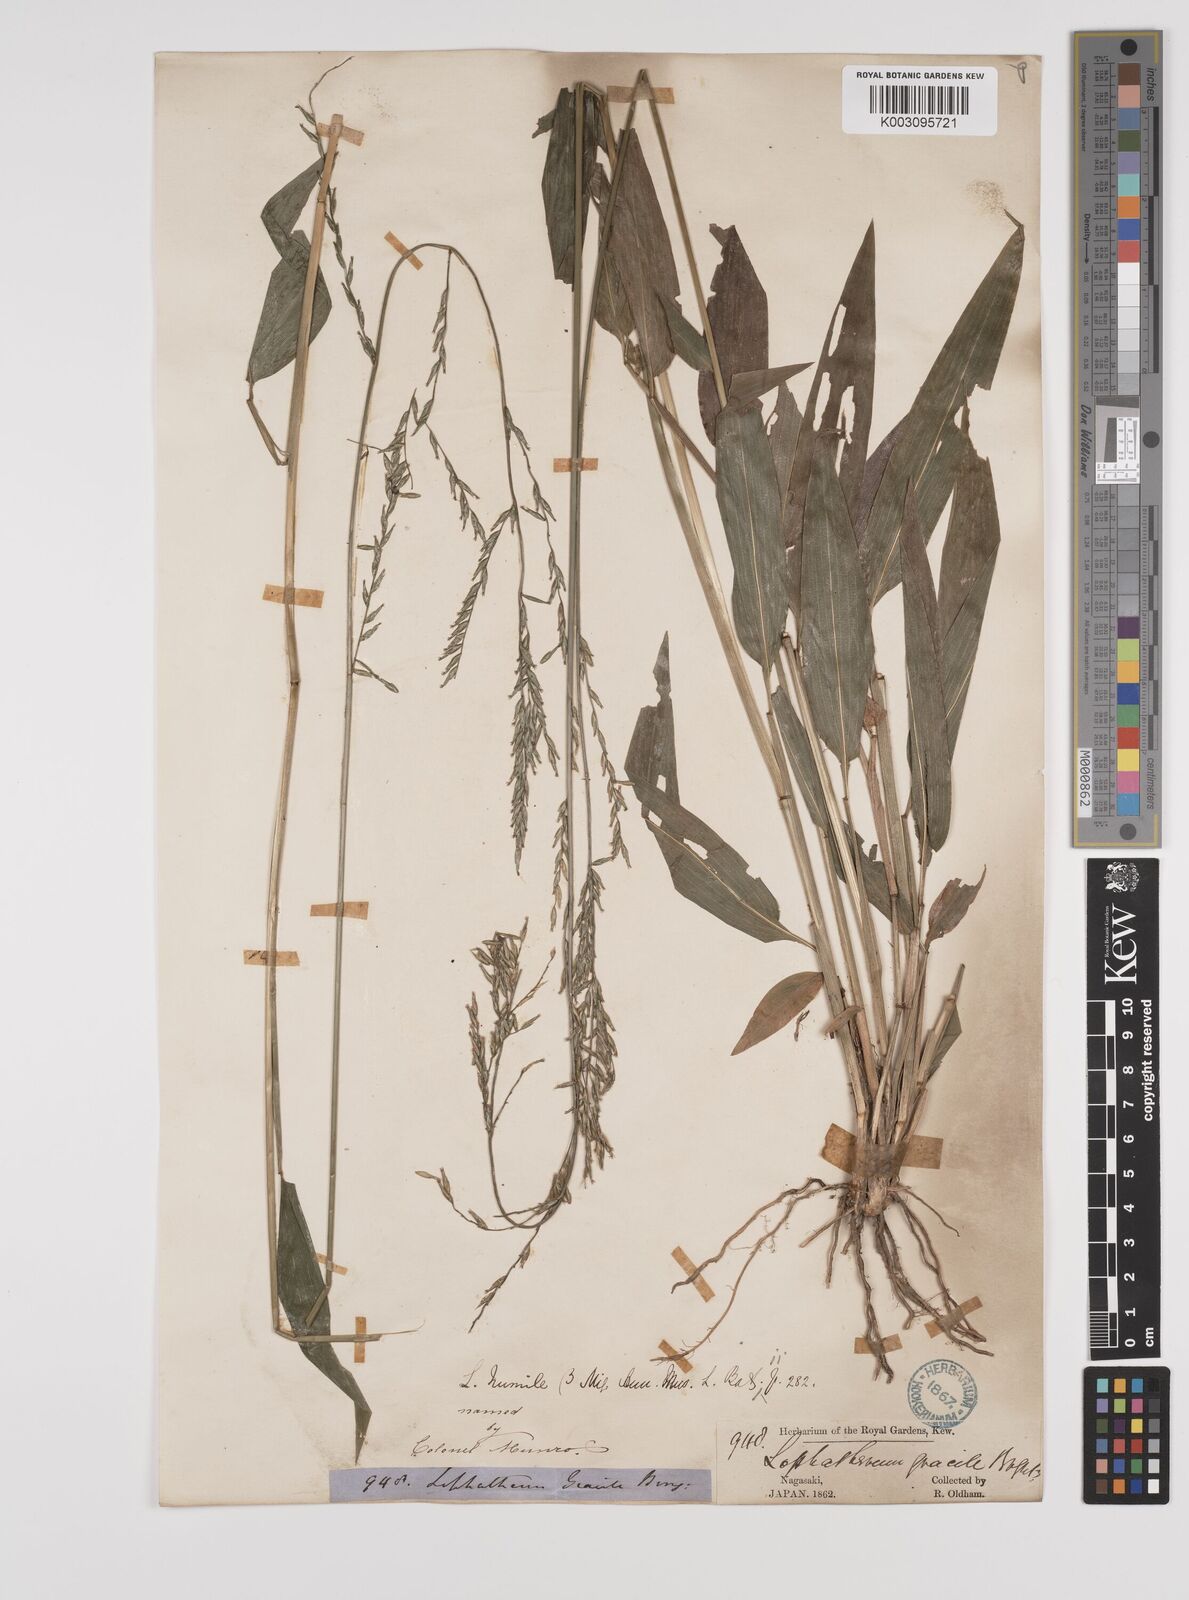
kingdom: Plantae
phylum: Tracheophyta
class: Liliopsida
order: Poales
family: Poaceae
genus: Lophatherum
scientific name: Lophatherum gracile
